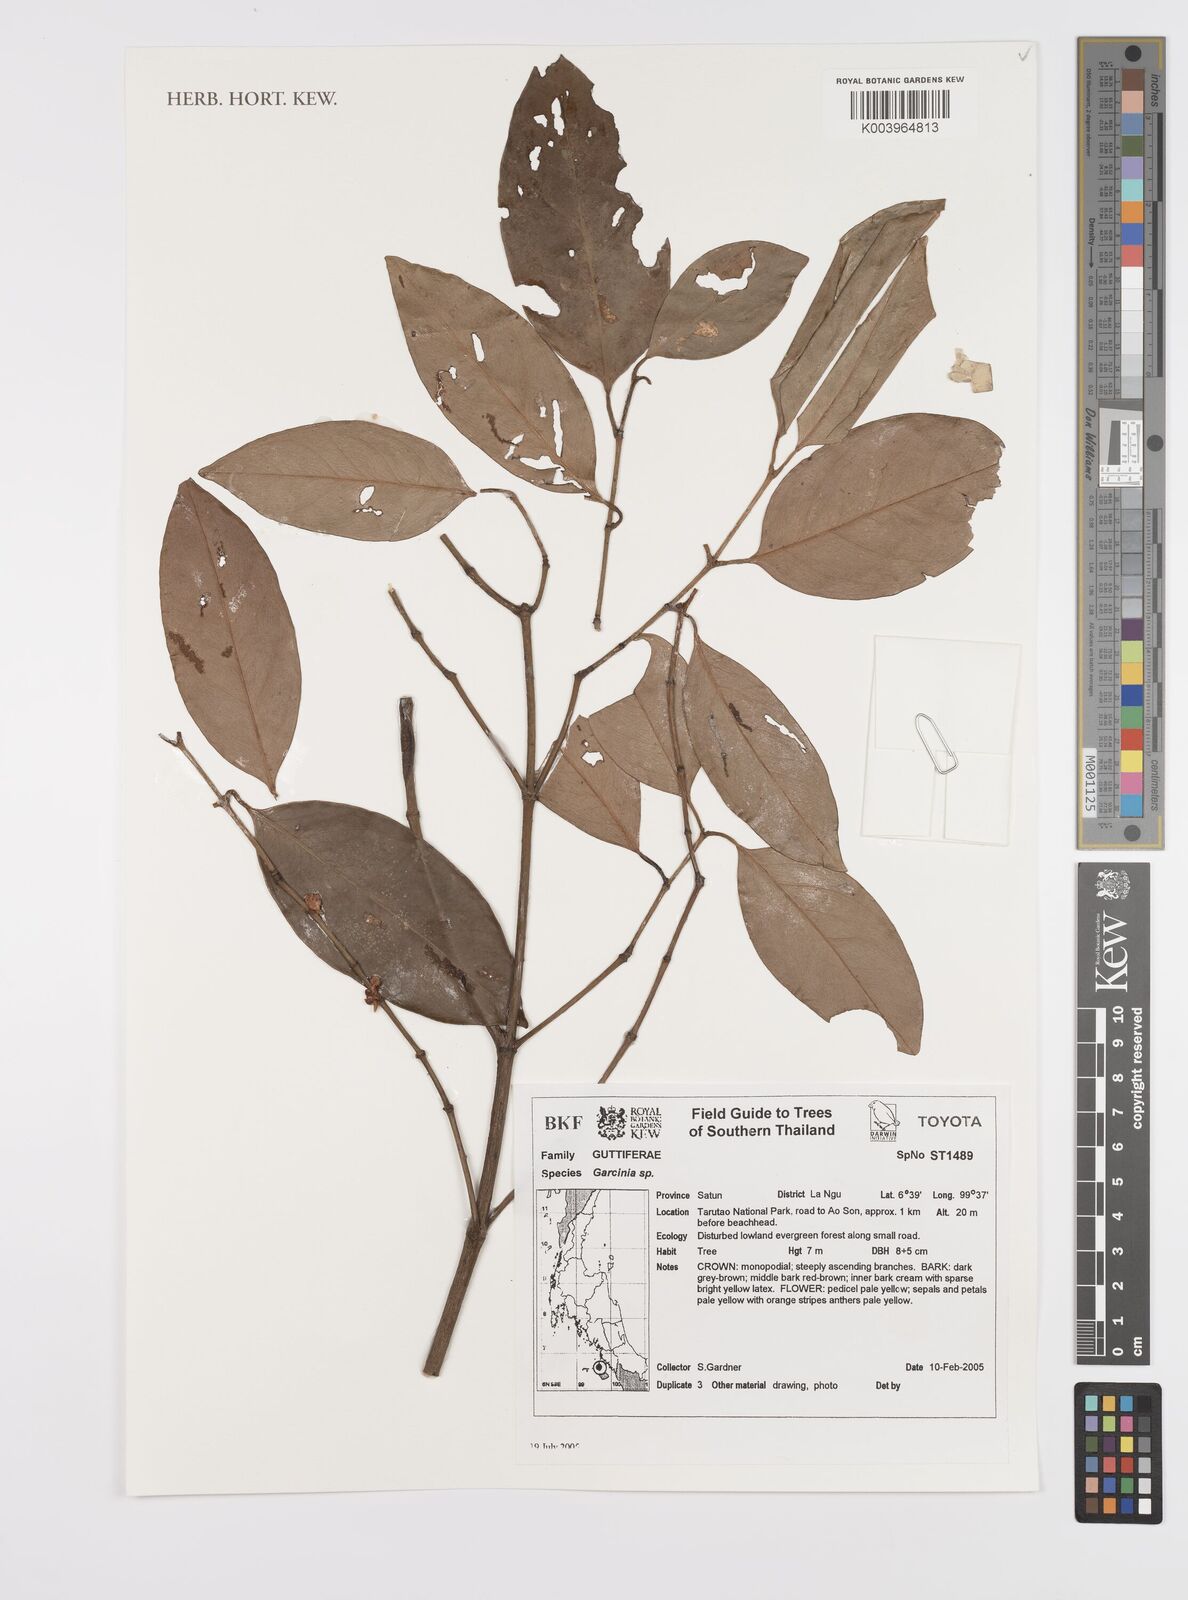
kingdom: Plantae
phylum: Tracheophyta
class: Magnoliopsida
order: Malpighiales
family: Clusiaceae
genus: Garcinia
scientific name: Garcinia
